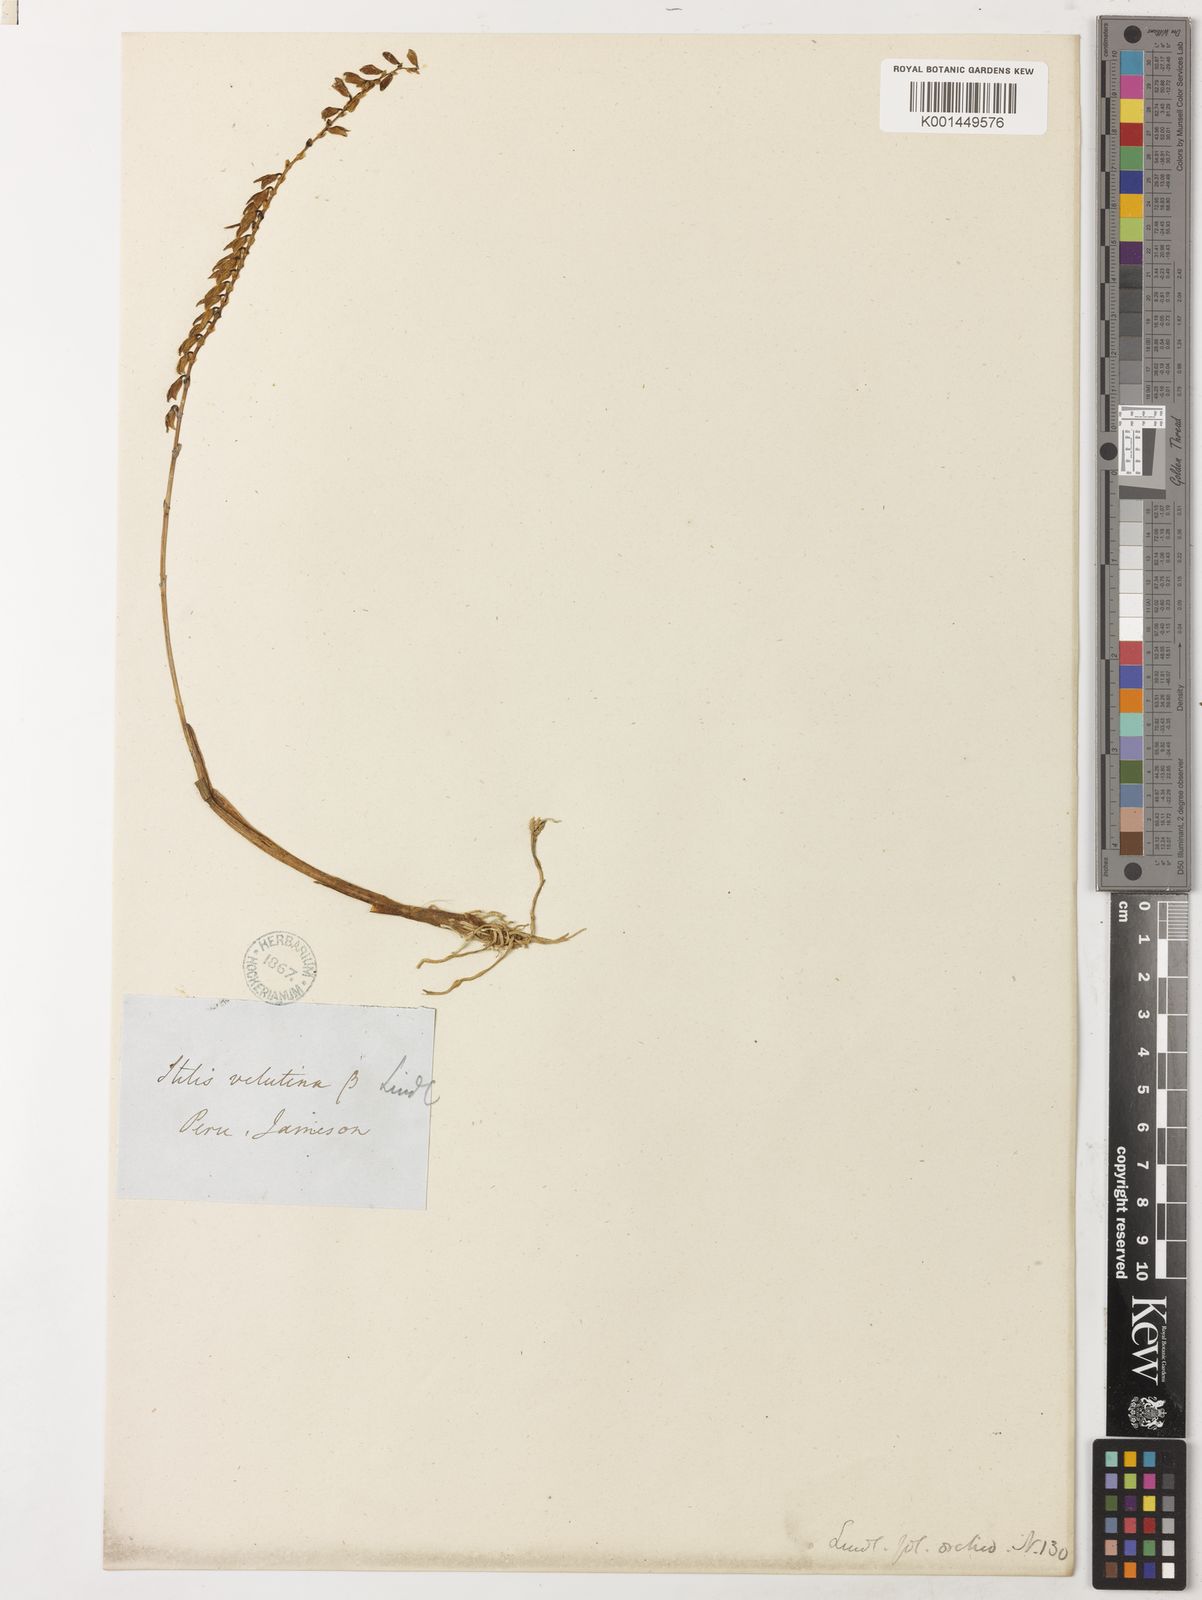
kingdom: Plantae
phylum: Tracheophyta
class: Liliopsida
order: Asparagales
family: Orchidaceae
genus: Stelis
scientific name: Stelis velutina
